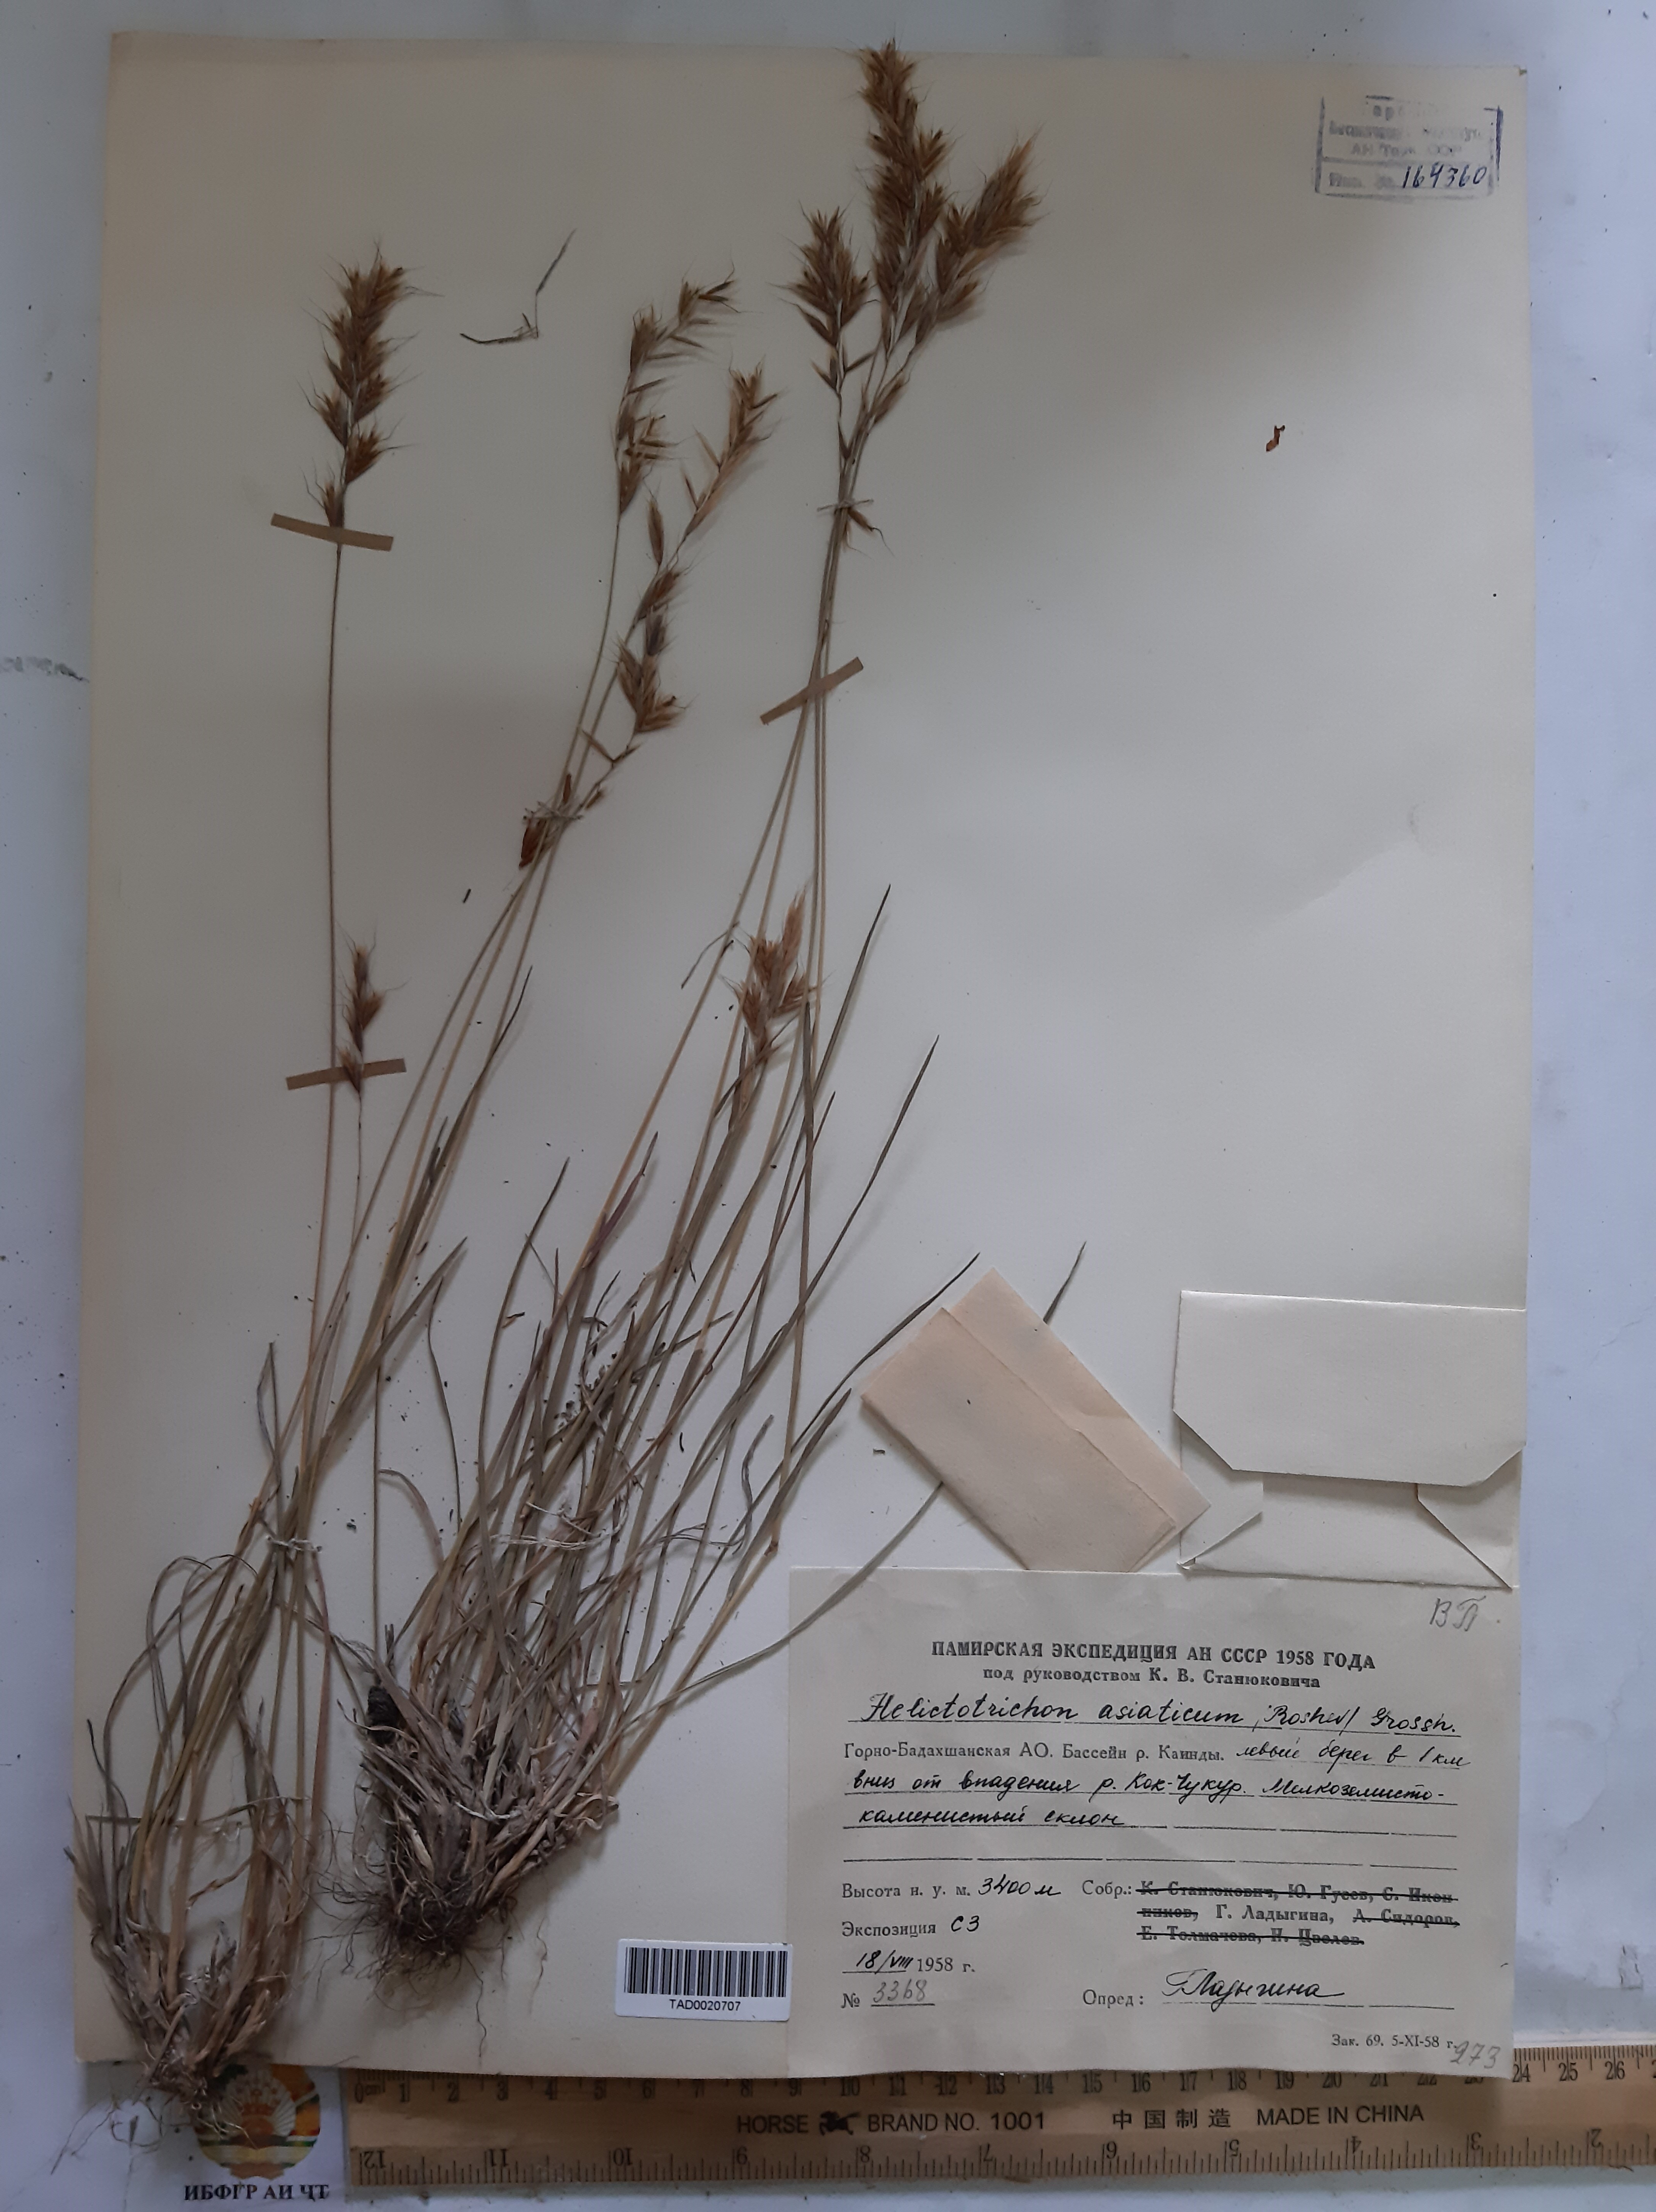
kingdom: Plantae
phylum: Tracheophyta
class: Liliopsida
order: Poales
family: Poaceae
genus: Helictochloa
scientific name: Helictochloa hookeri
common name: Hooker's alpine oatgrass
